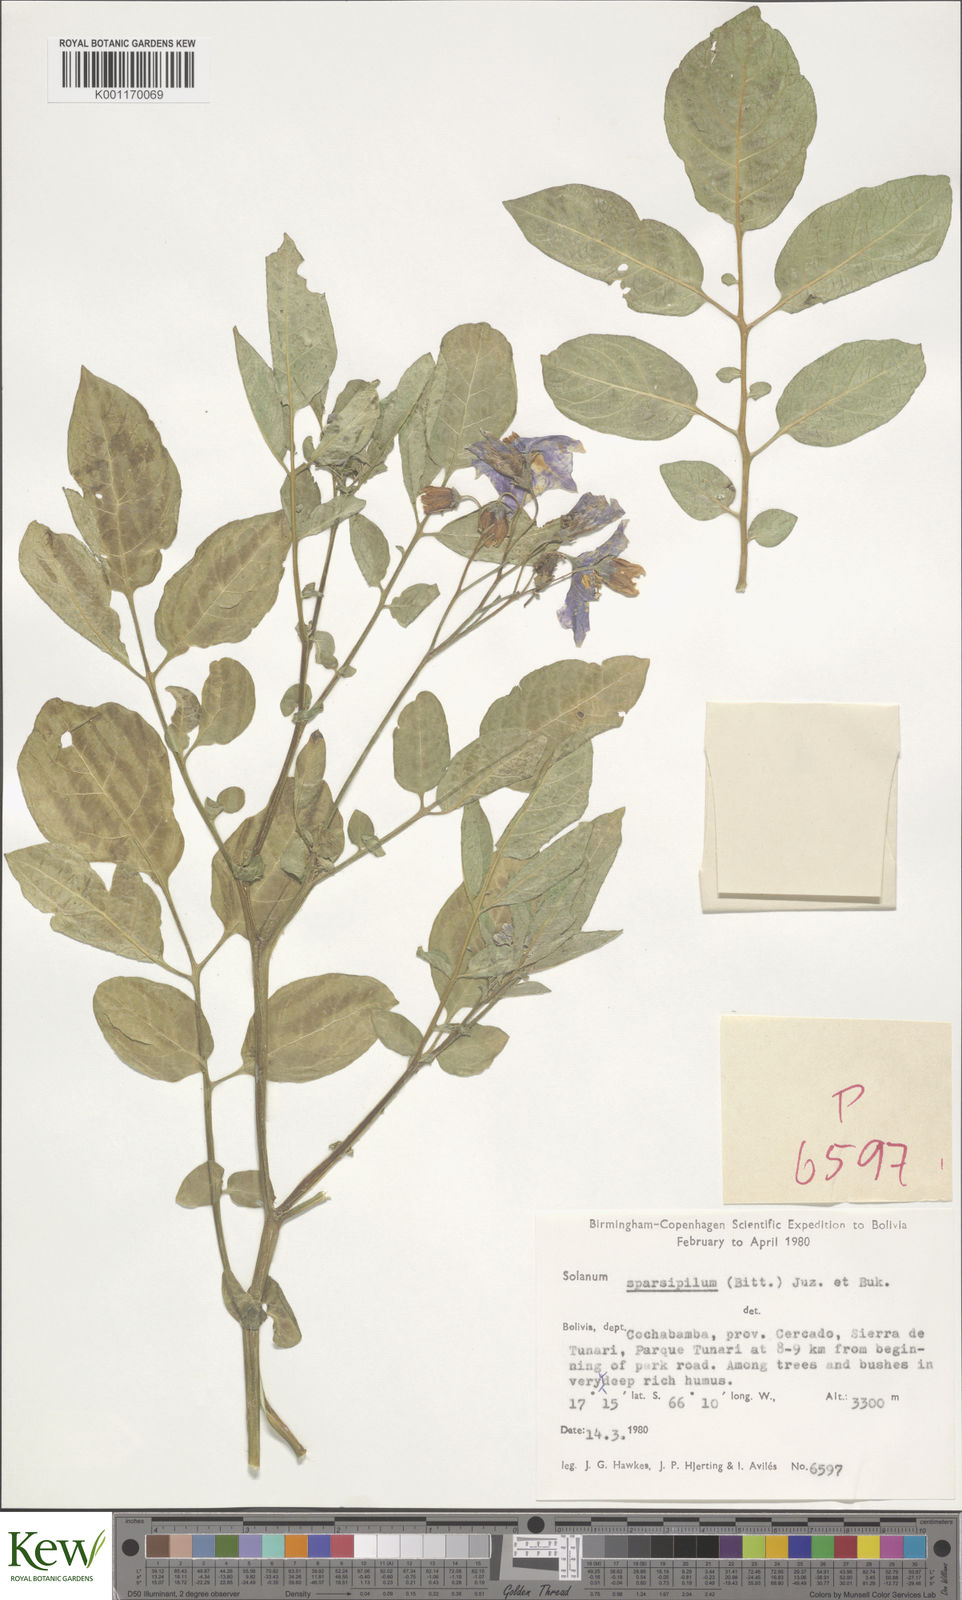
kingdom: Plantae
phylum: Tracheophyta
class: Magnoliopsida
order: Solanales
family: Solanaceae
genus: Solanum
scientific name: Solanum brevicaule
